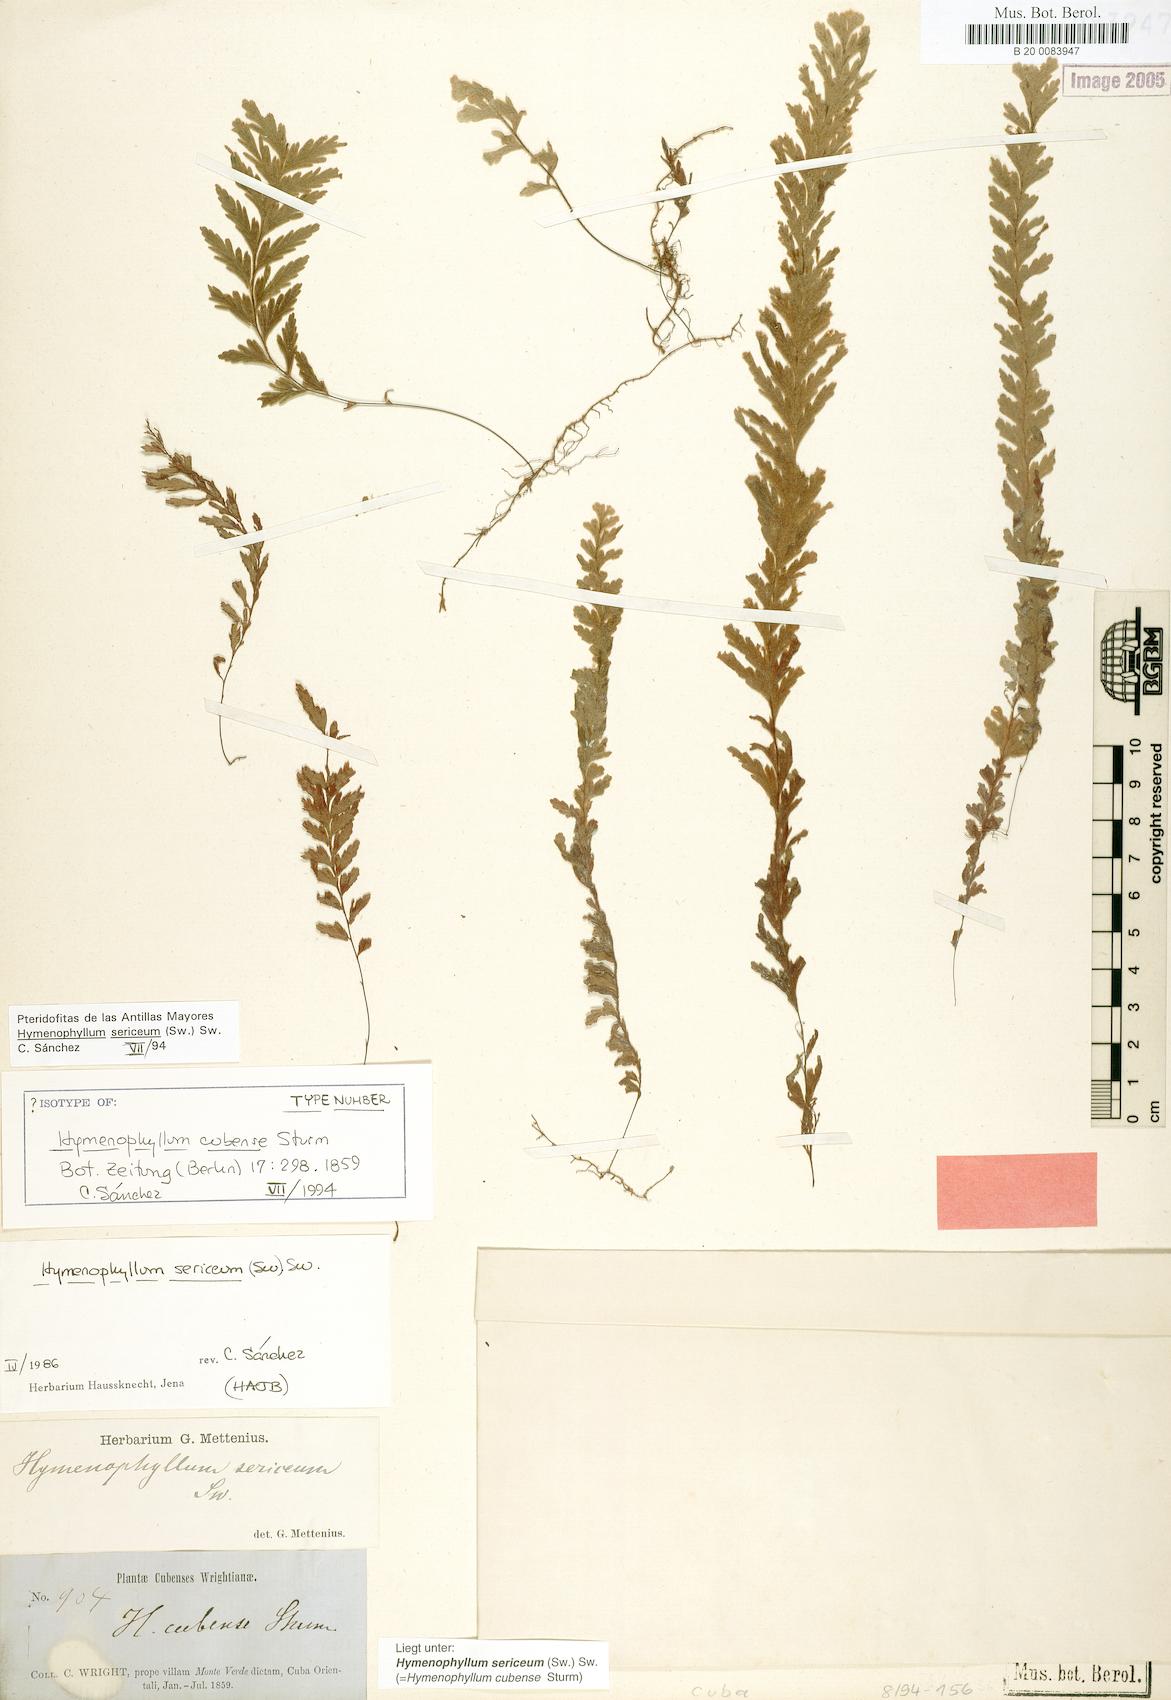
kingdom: Plantae
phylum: Tracheophyta
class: Polypodiopsida
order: Hymenophyllales
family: Hymenophyllaceae
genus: Hymenophyllum
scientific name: Hymenophyllum sericeum
